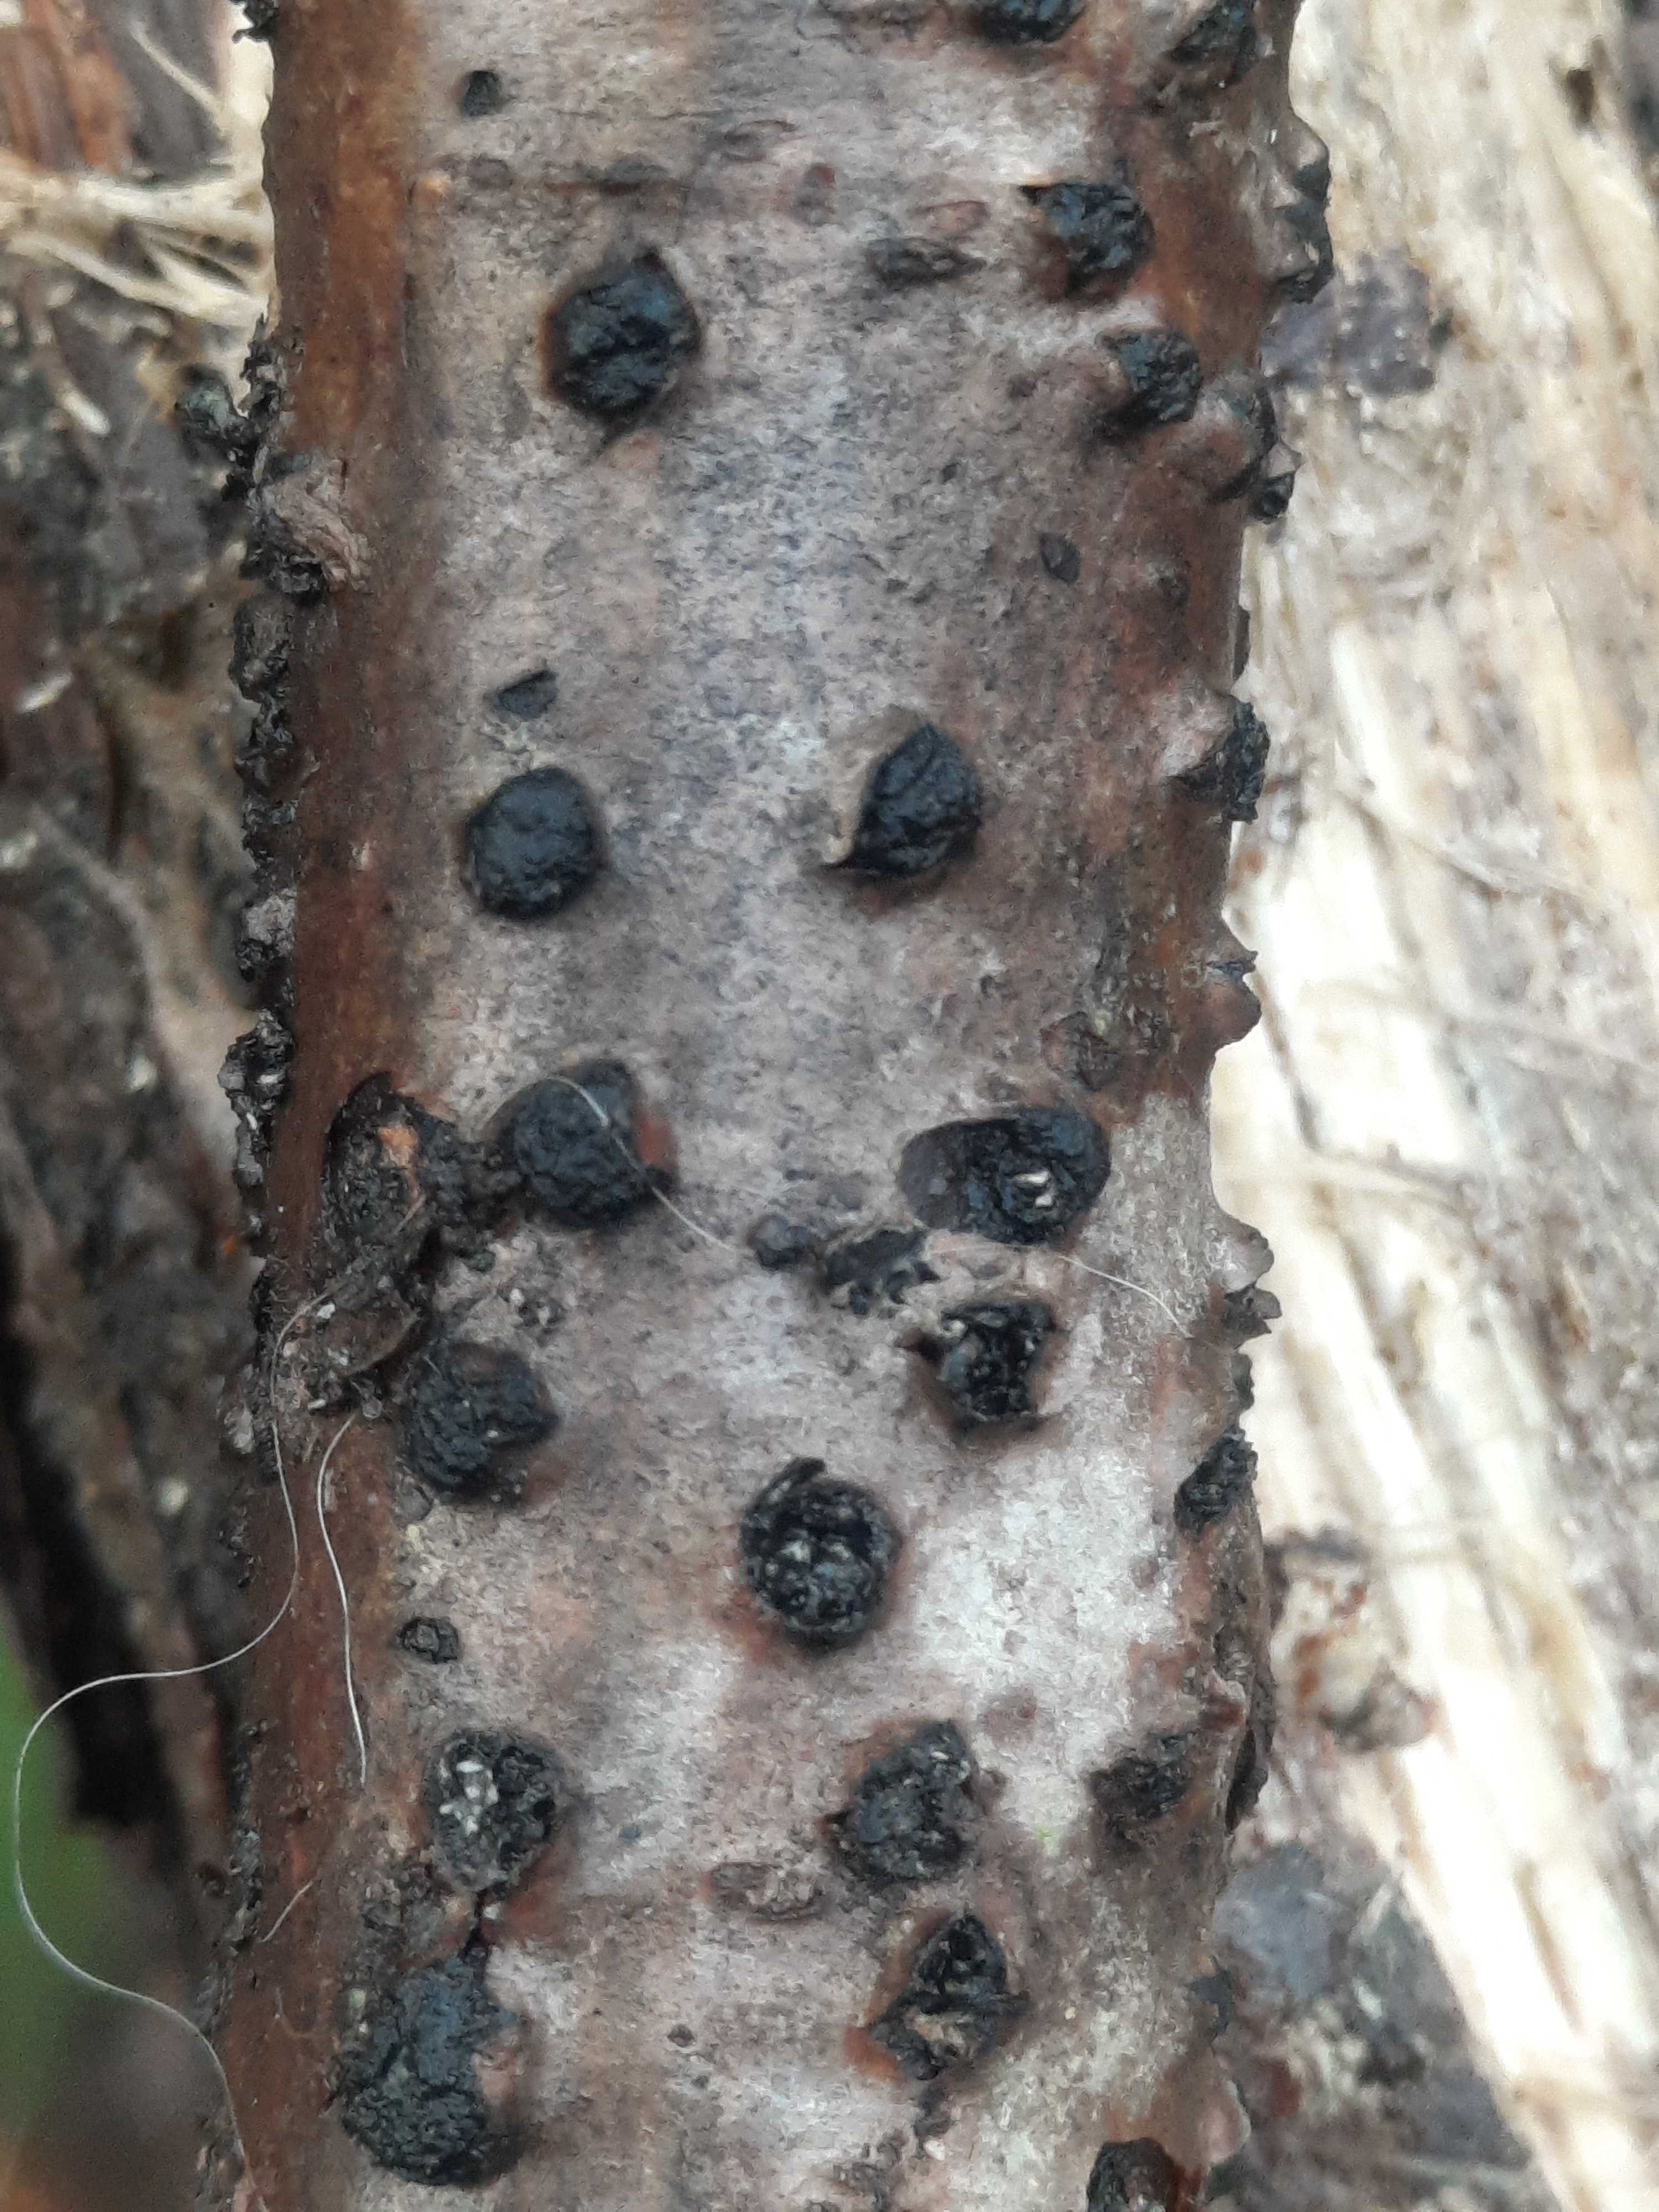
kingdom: Fungi
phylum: Ascomycota
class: Sordariomycetes
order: Xylariales
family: Diatrypaceae
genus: Diatrypella
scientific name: Diatrypella quercina
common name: ege-kulskorpe
